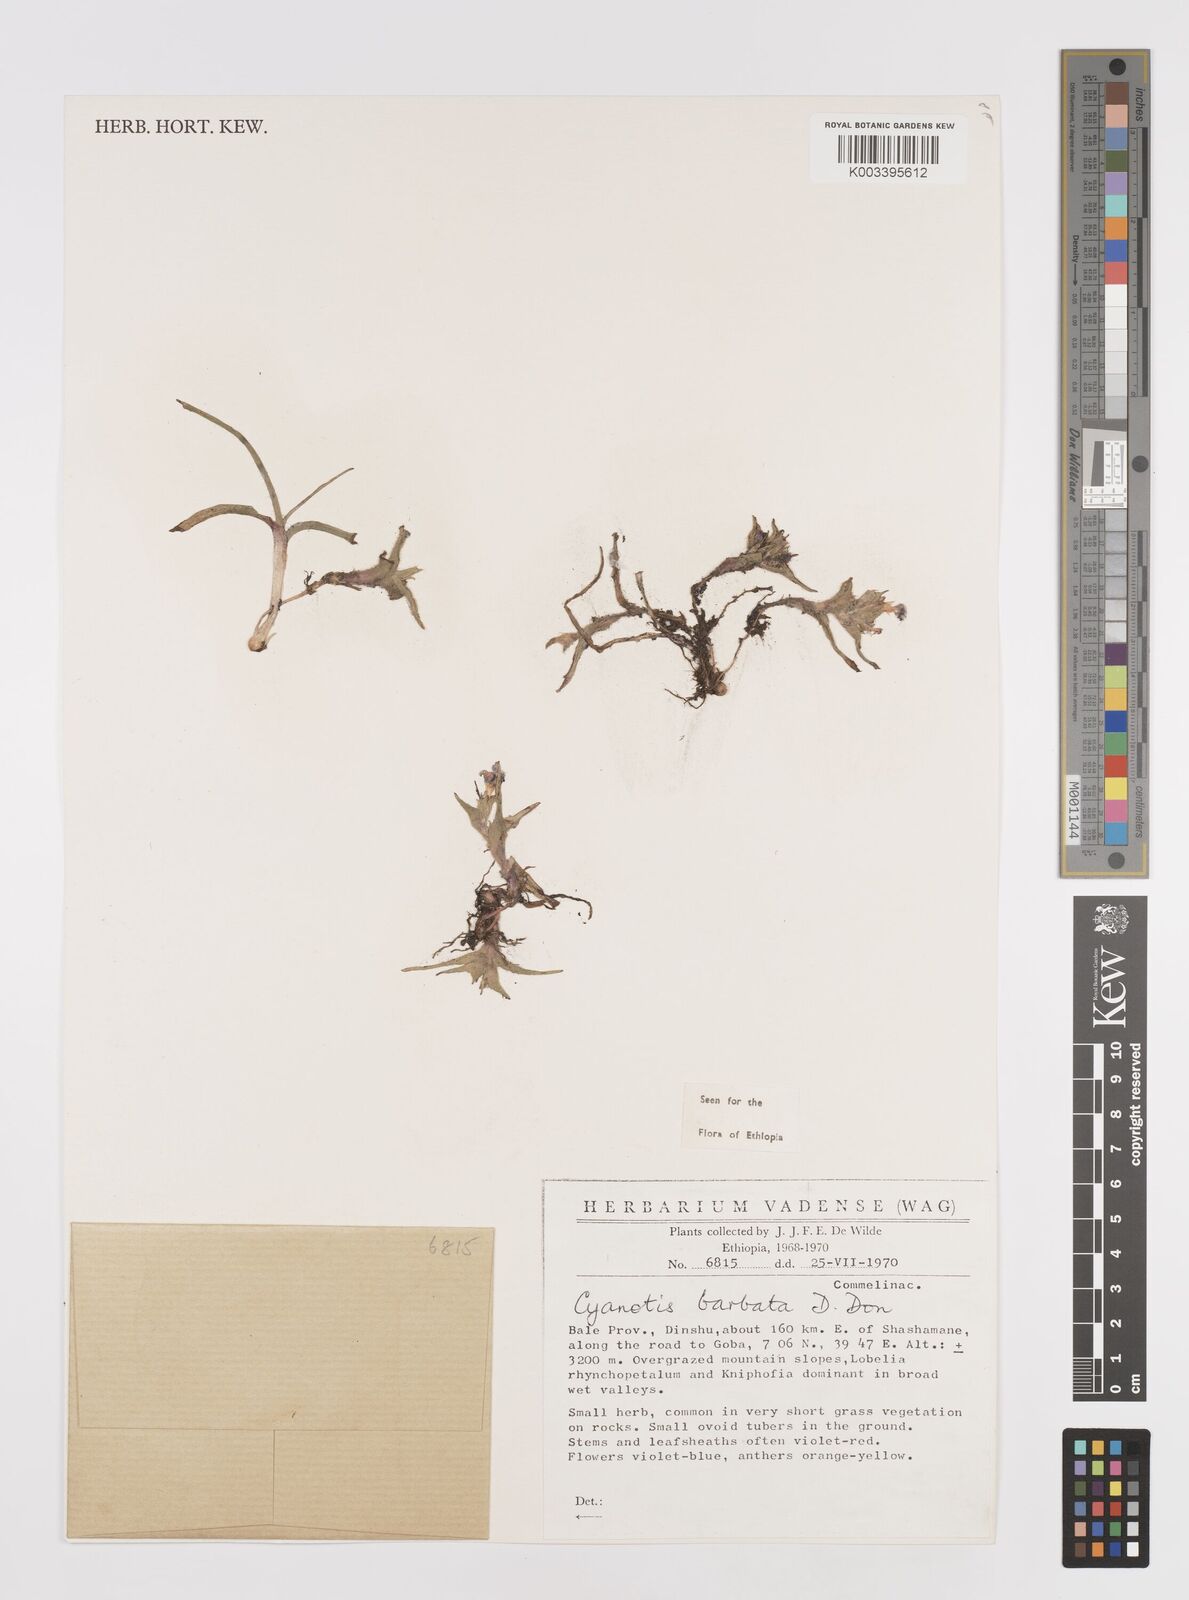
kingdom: Plantae
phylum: Tracheophyta
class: Liliopsida
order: Commelinales
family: Commelinaceae
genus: Cyanotis
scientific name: Cyanotis vaga
